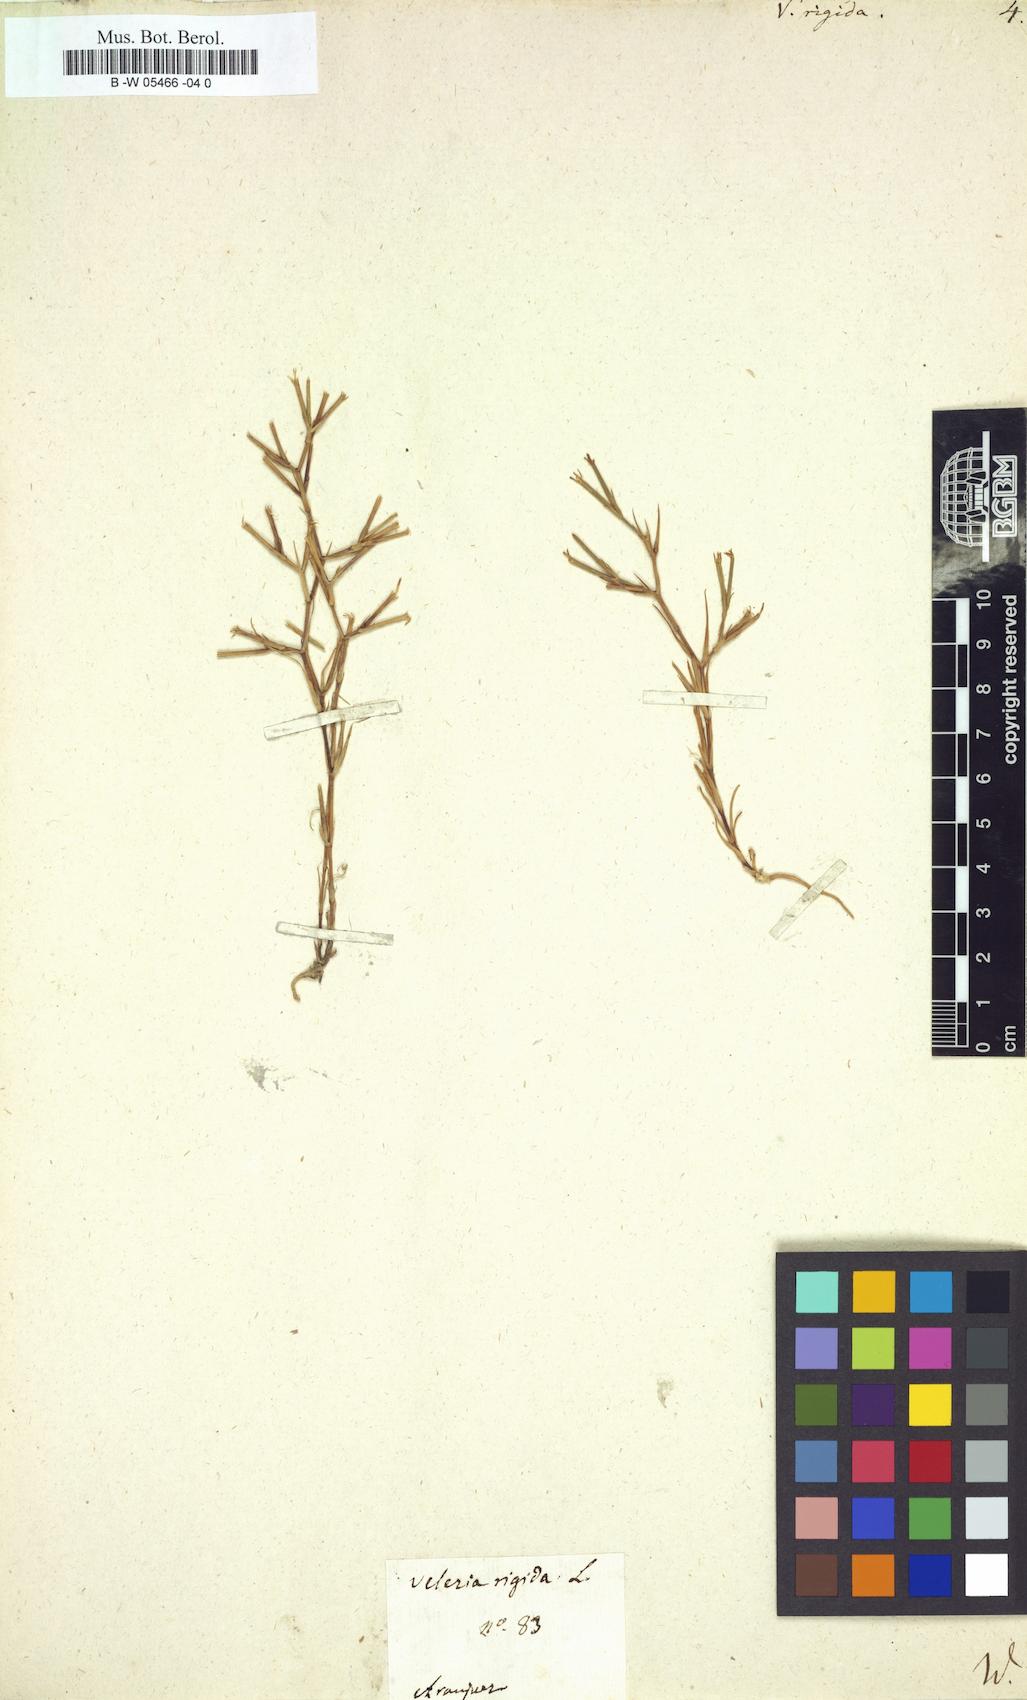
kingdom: Plantae
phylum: Tracheophyta
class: Magnoliopsida
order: Caryophyllales
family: Caryophyllaceae
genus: Dianthus
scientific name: Dianthus nudiflorus
